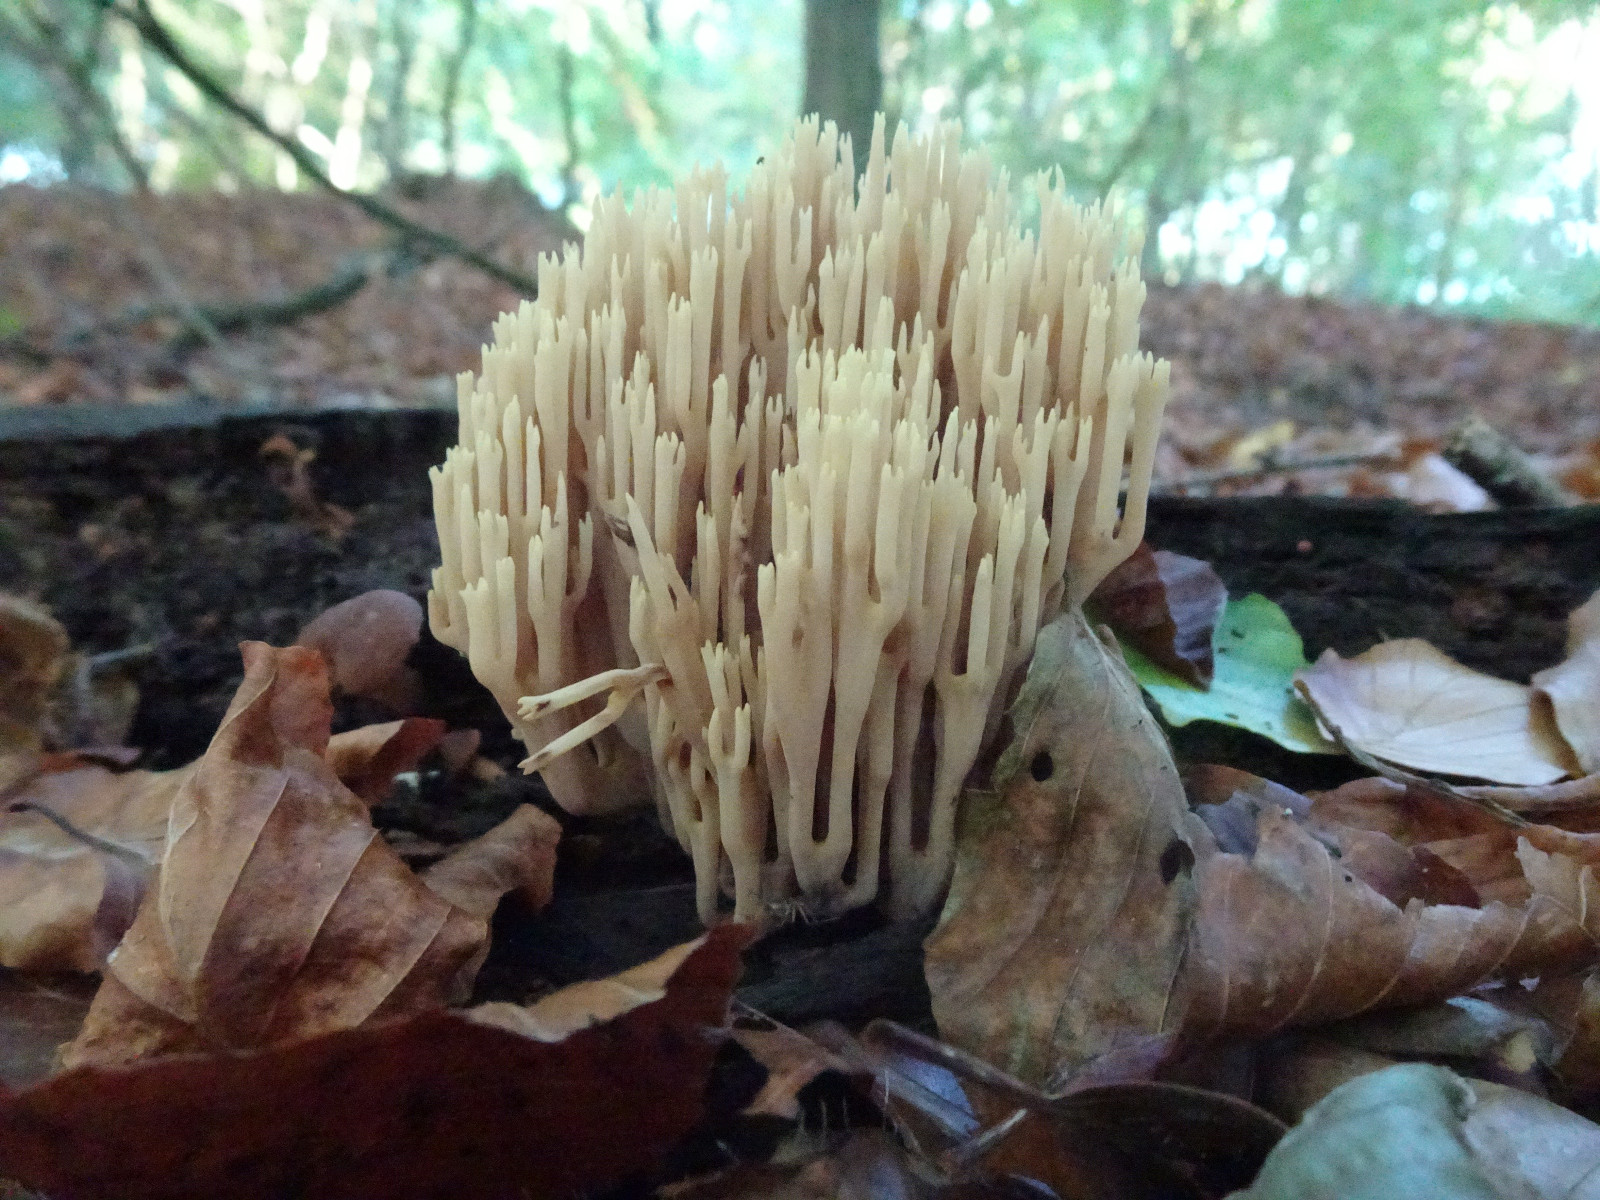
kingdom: Fungi
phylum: Basidiomycota
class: Agaricomycetes
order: Gomphales
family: Gomphaceae
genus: Ramaria
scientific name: Ramaria stricta
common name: rank koralsvamp
